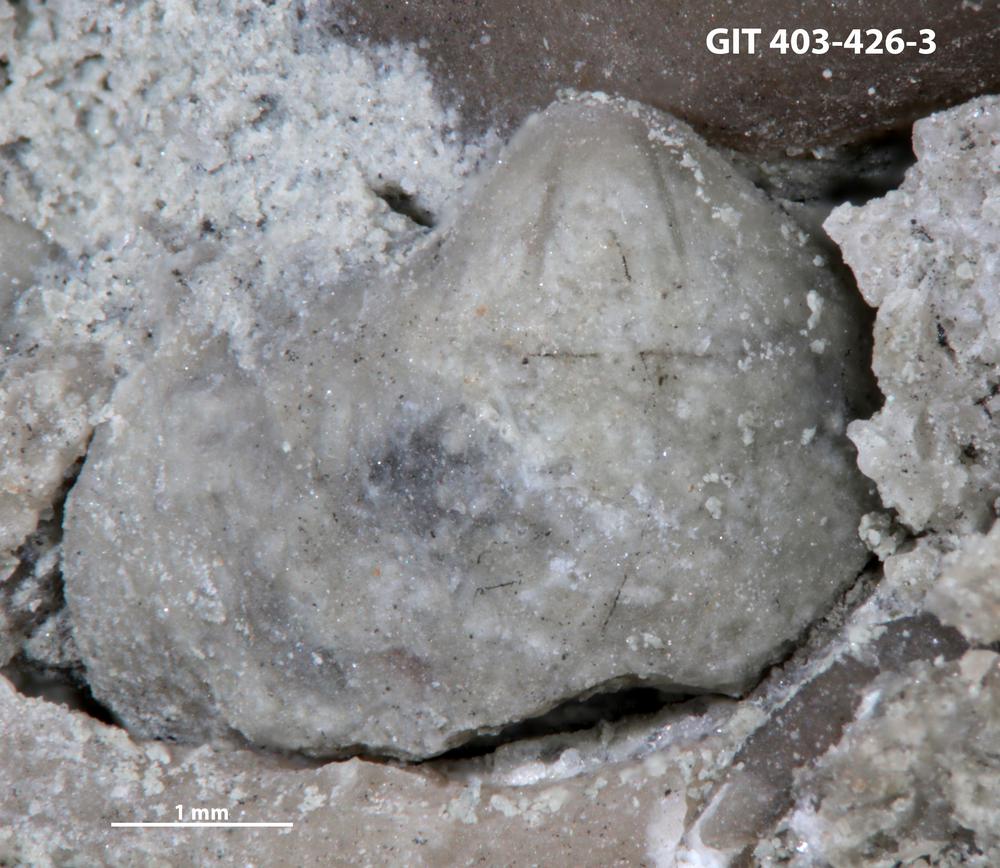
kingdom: Animalia
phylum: Brachiopoda
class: Rhynchonellata
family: Athyrididae
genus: Collarothyris
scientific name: Collarothyris
